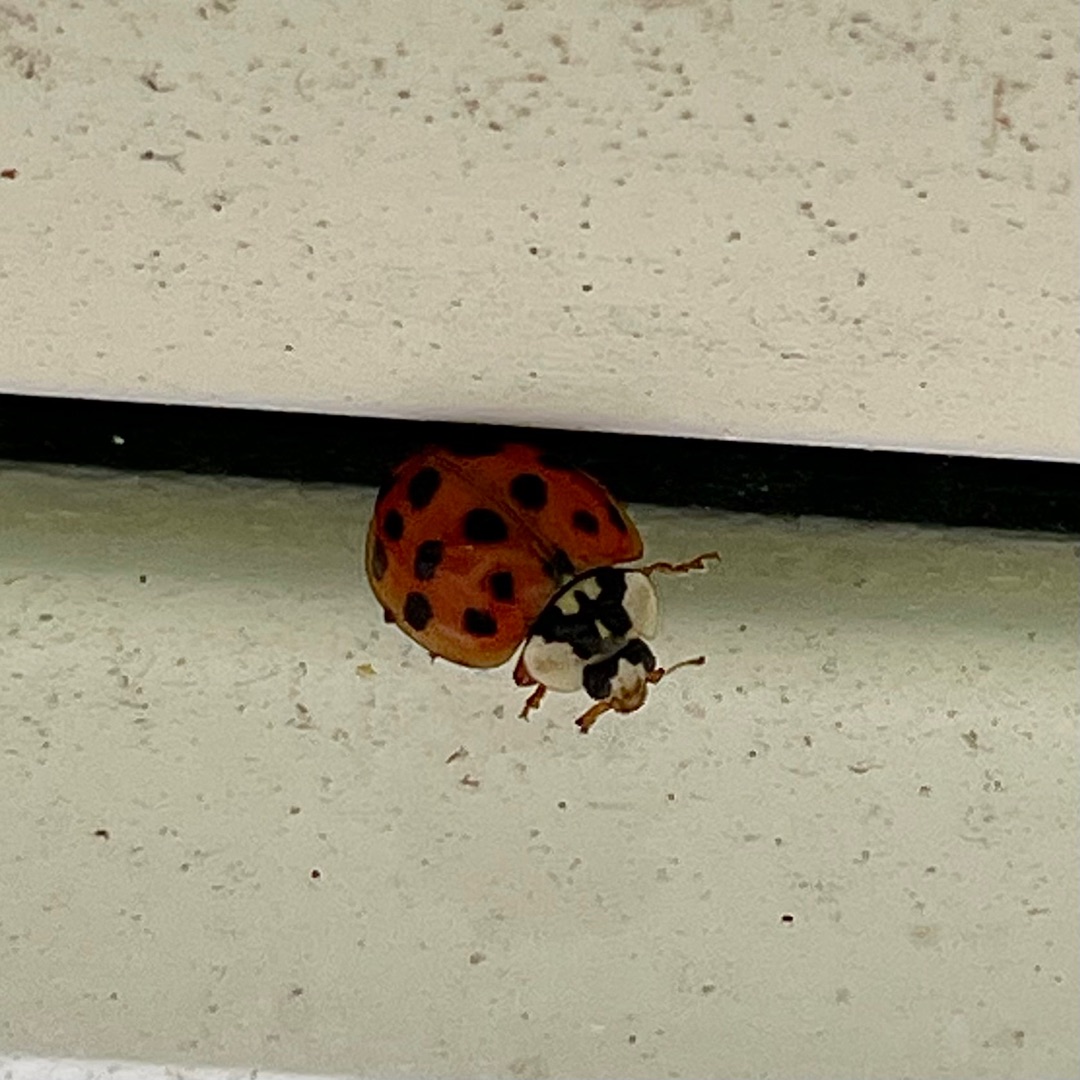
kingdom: Animalia
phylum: Arthropoda
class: Insecta
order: Coleoptera
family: Coccinellidae
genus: Harmonia
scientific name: Harmonia axyridis
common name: Harlekinmariehøne
